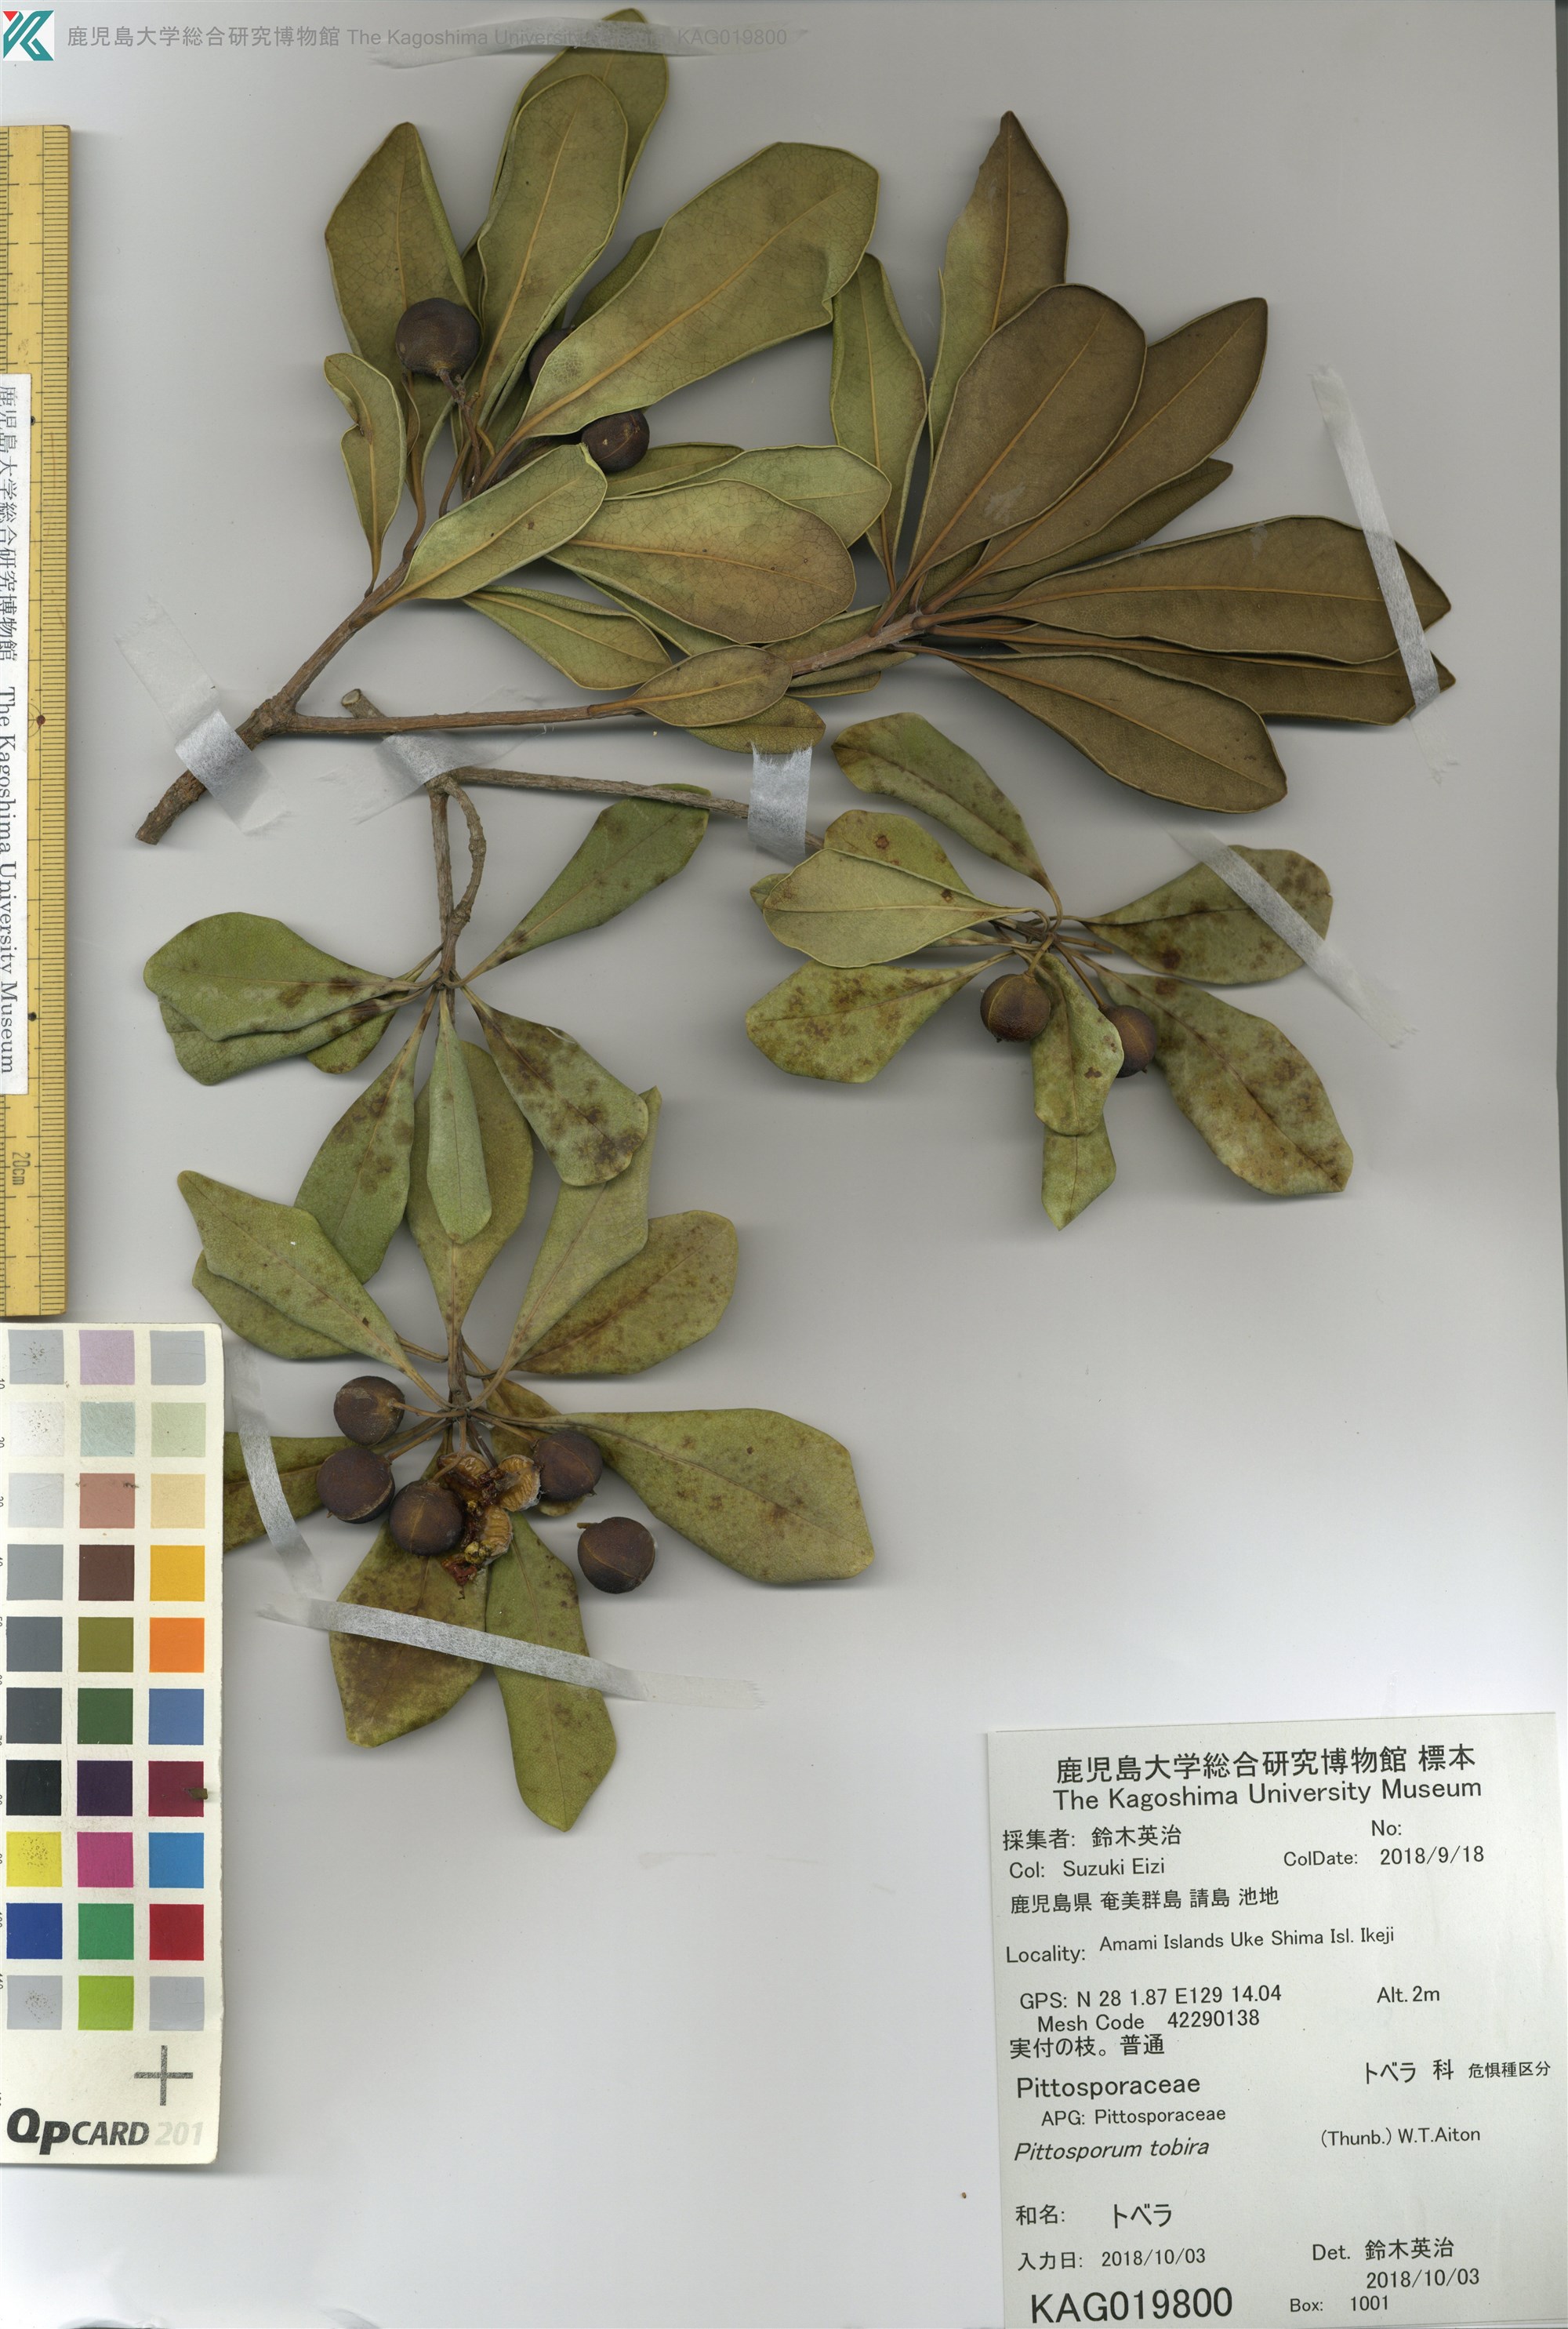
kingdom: Plantae
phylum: Tracheophyta
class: Magnoliopsida
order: Apiales
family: Pittosporaceae
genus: Pittosporum
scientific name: Pittosporum tobira
